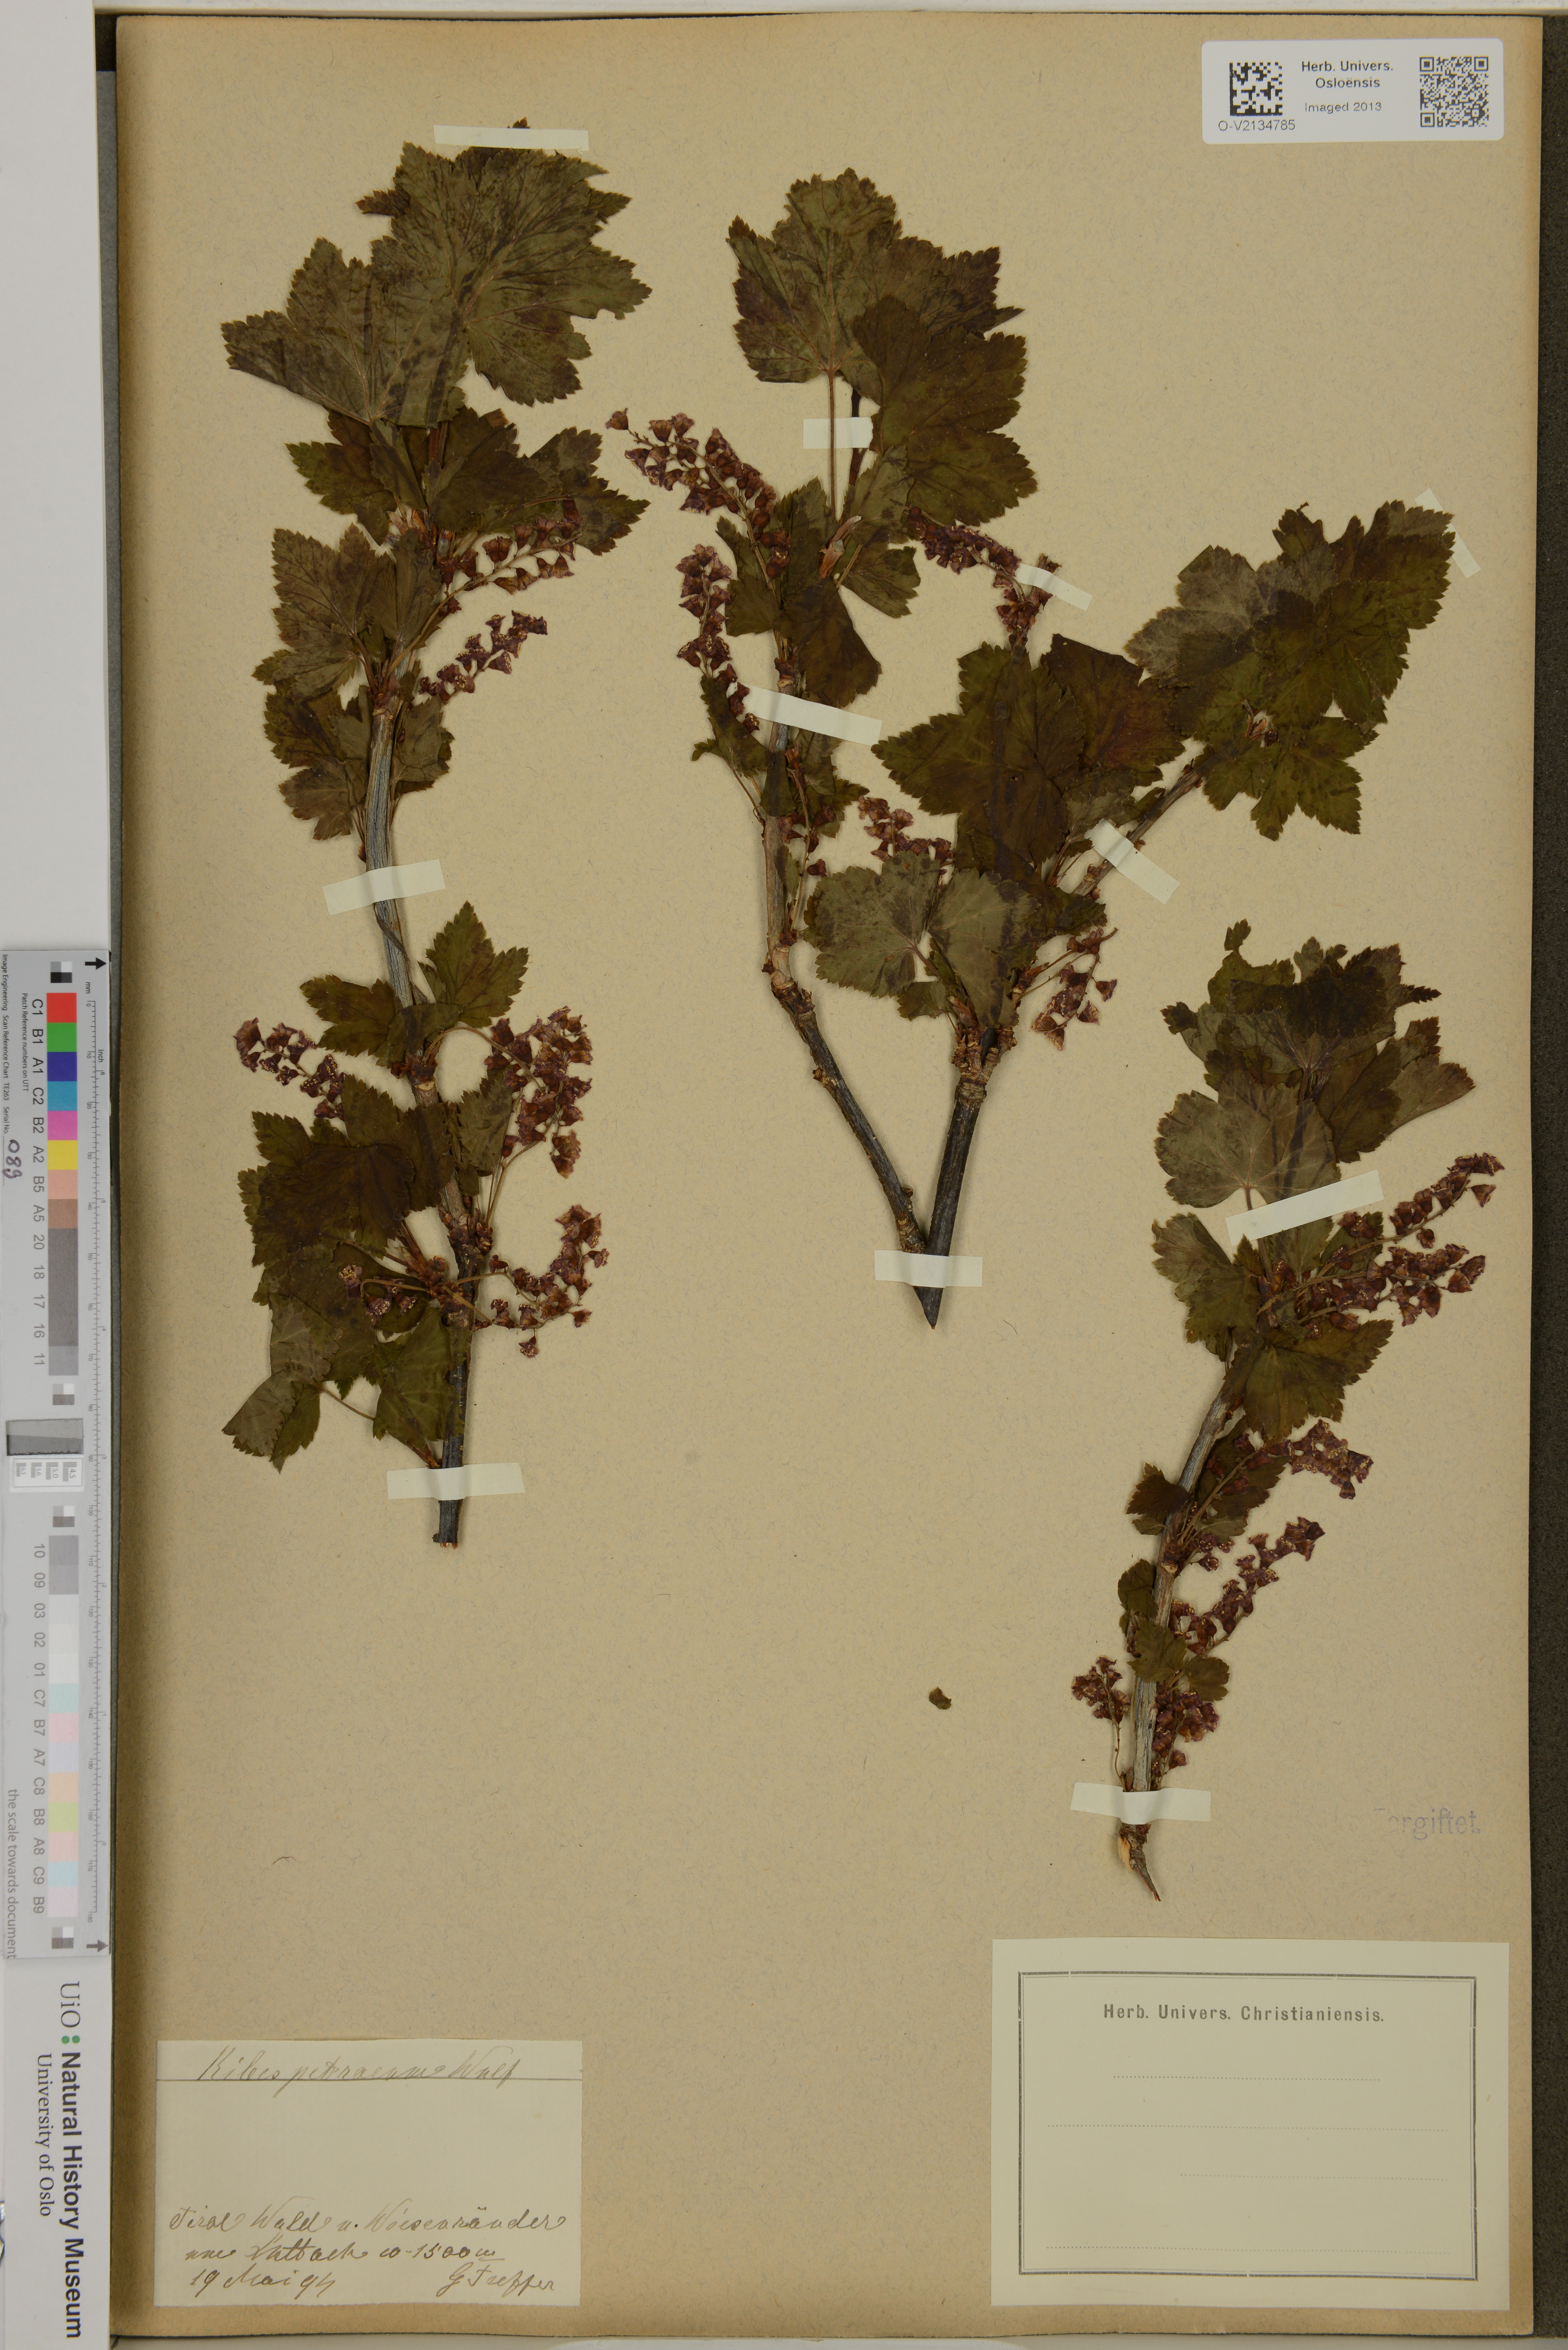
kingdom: Plantae
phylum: Tracheophyta
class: Magnoliopsida
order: Saxifragales
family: Grossulariaceae
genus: Ribes
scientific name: Ribes petraeum
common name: Rock currant
